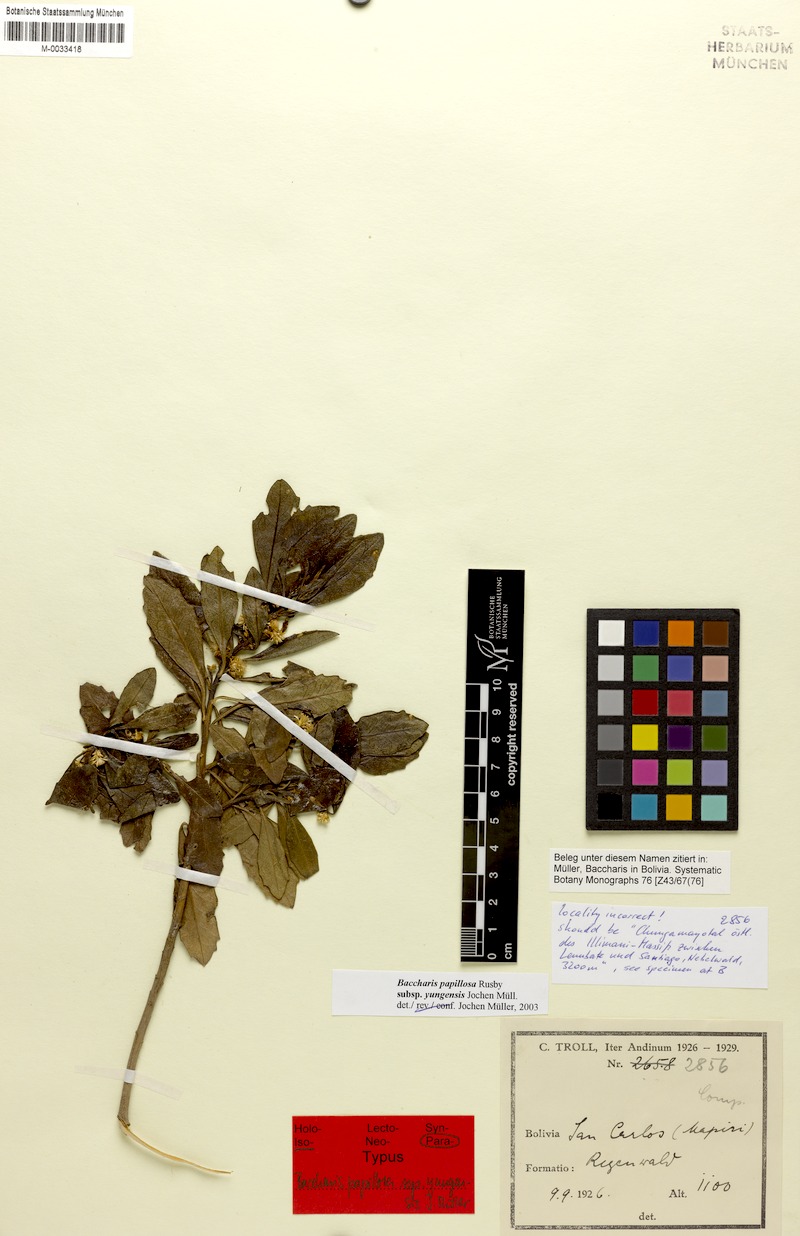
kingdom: Plantae
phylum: Tracheophyta
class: Magnoliopsida
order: Asterales
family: Asteraceae
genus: Baccharis
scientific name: Baccharis yungensis
